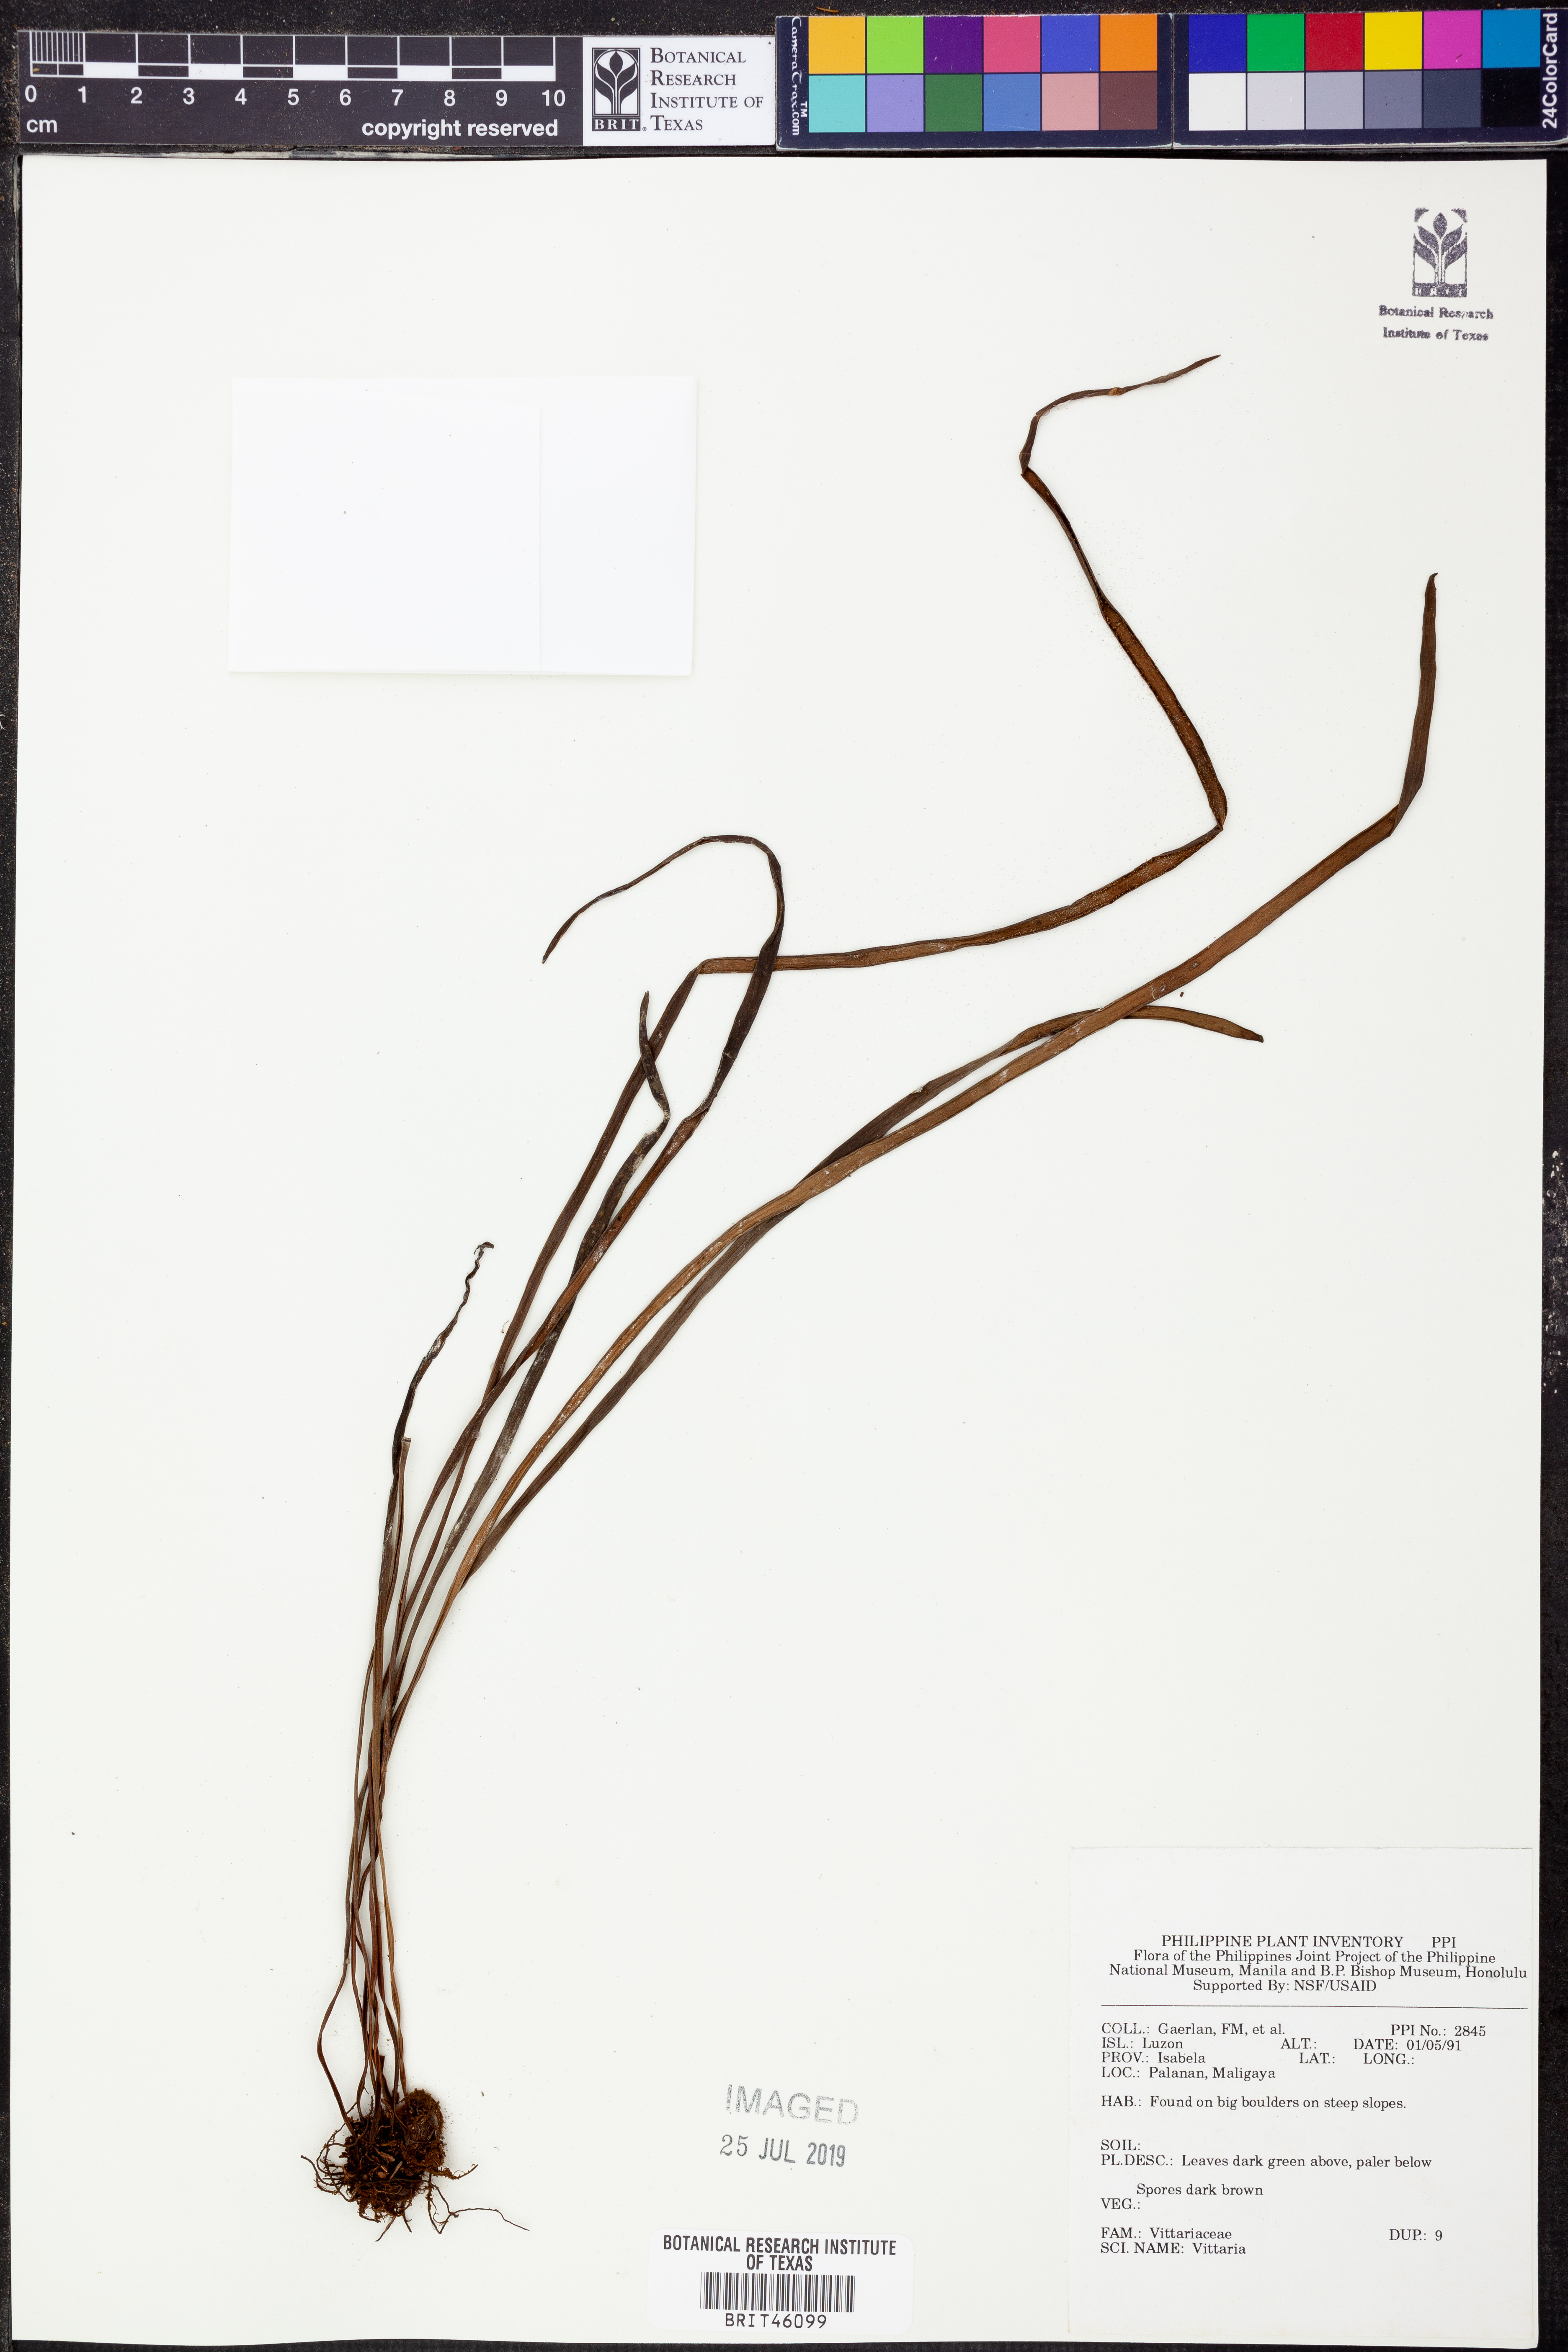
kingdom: Plantae
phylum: Tracheophyta
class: Polypodiopsida
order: Polypodiales
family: Pteridaceae
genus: Vittaria
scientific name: Vittaria
